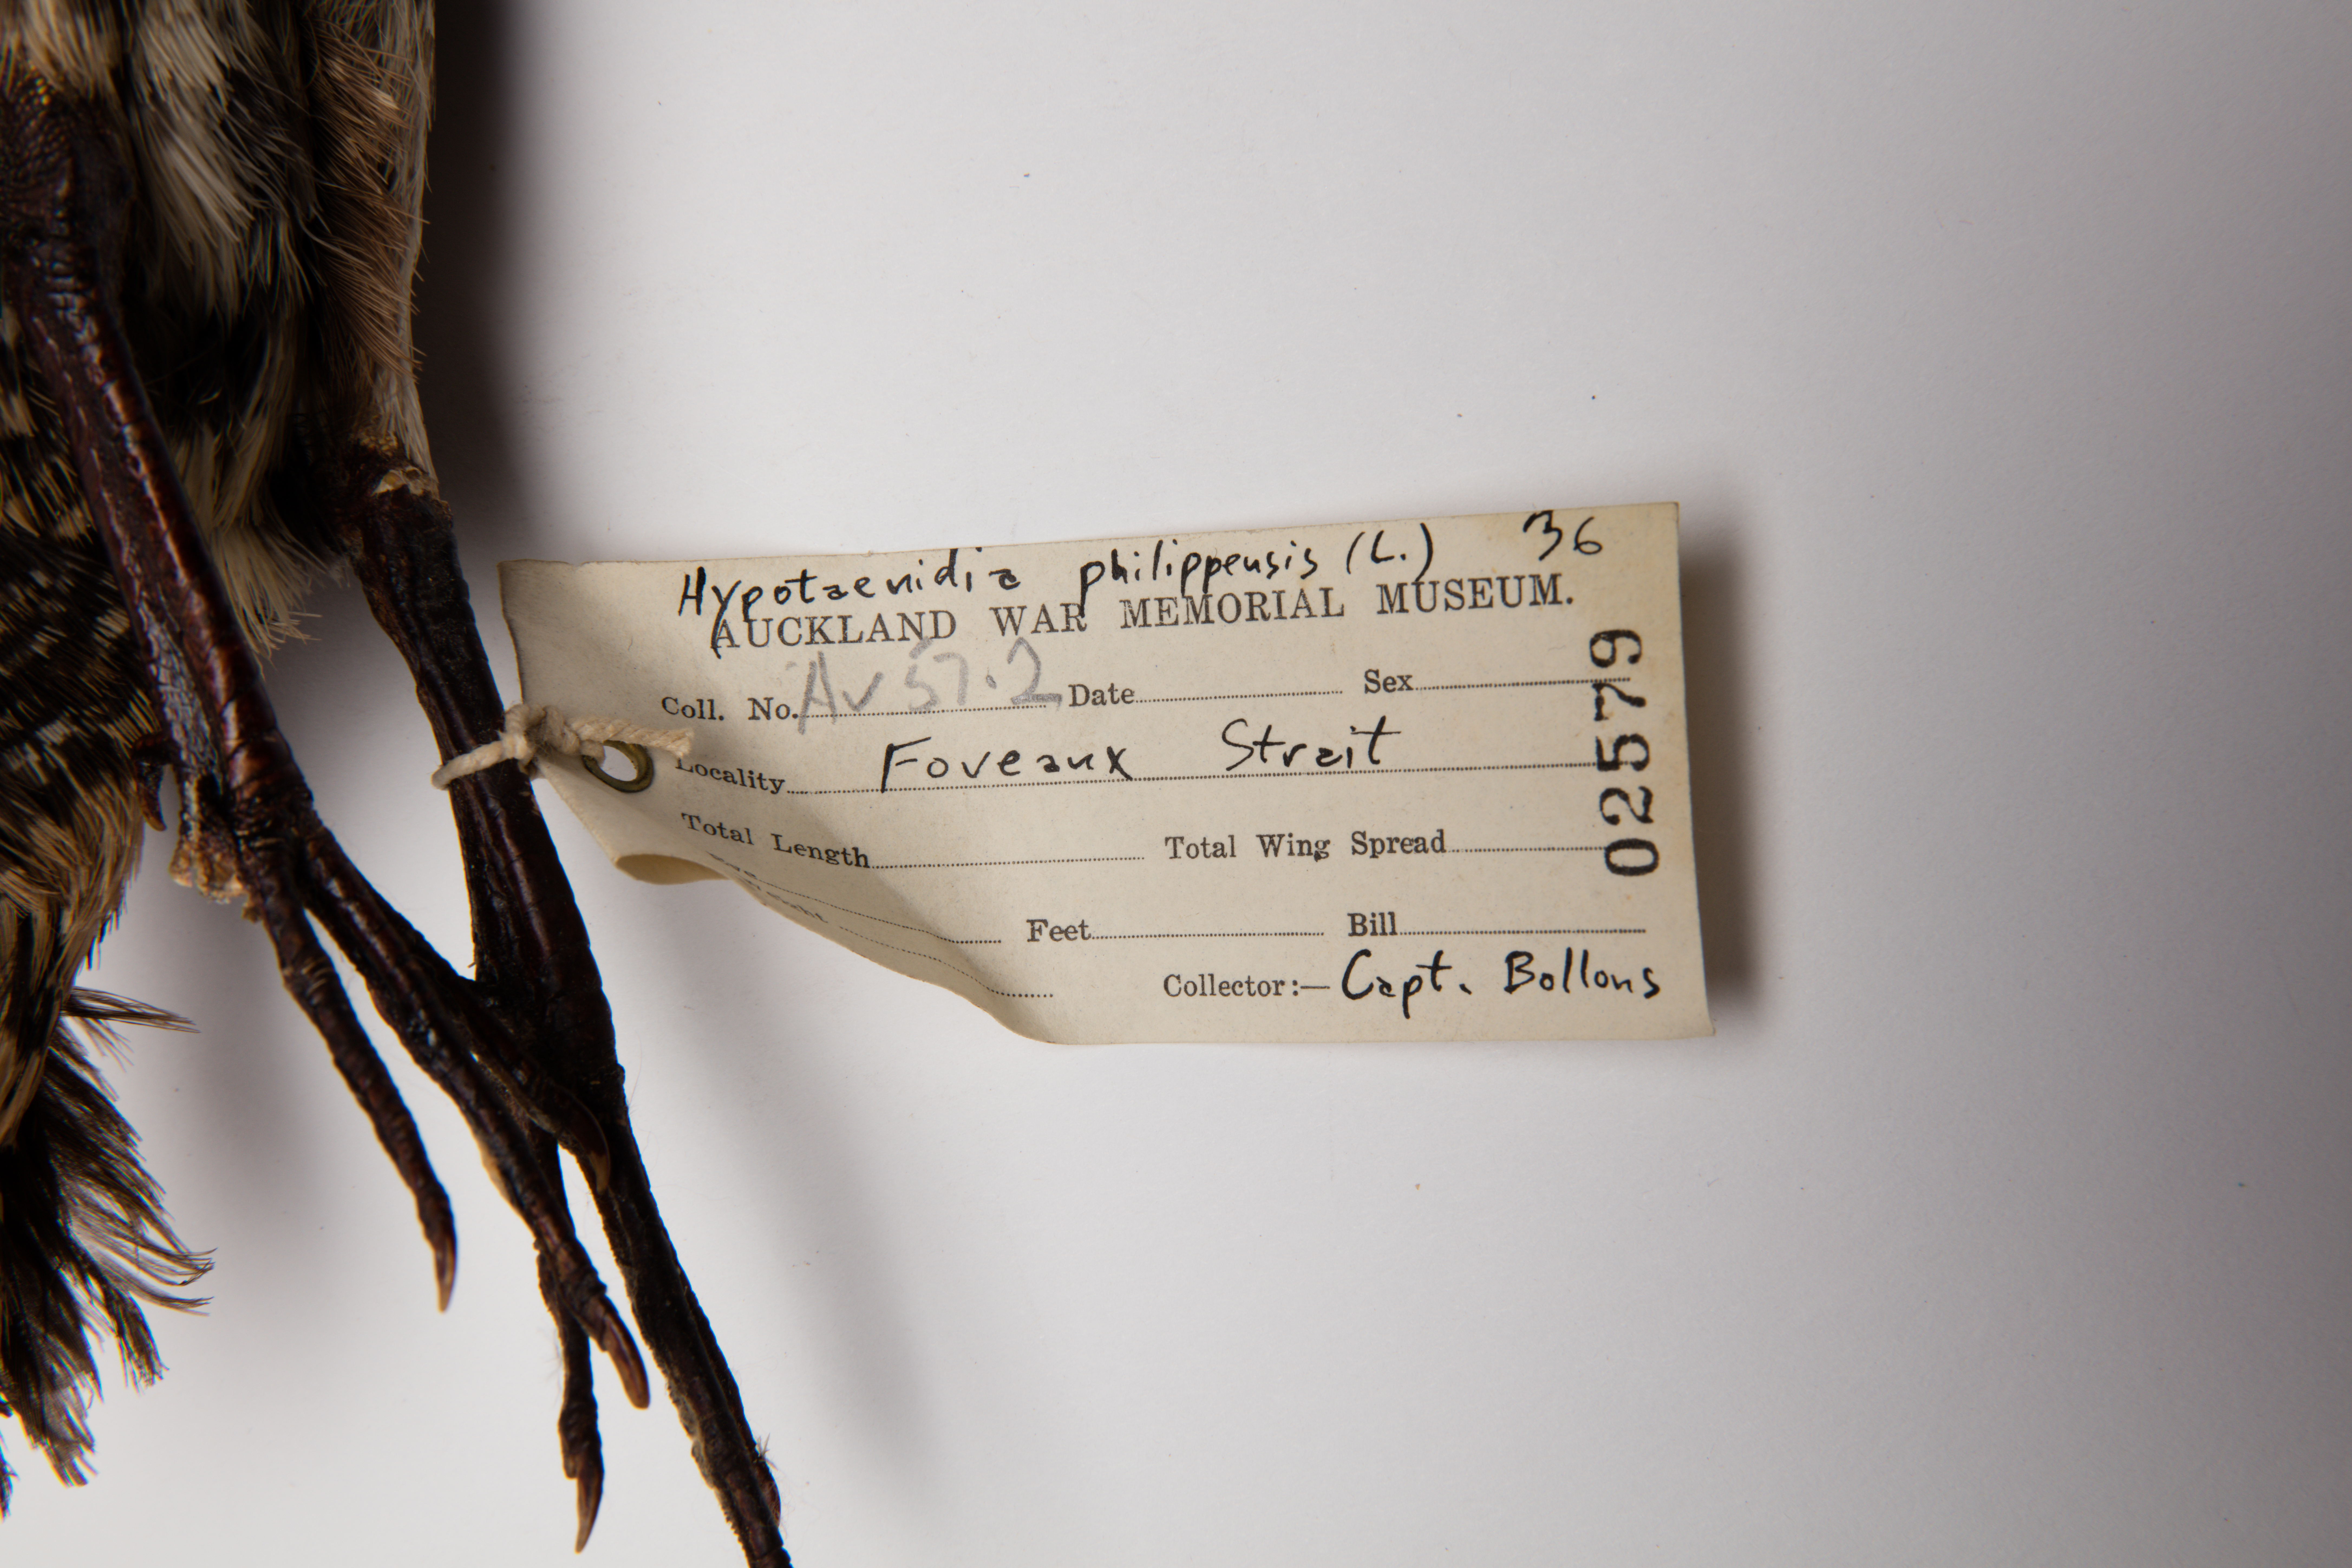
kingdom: Animalia
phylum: Chordata
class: Aves
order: Gruiformes
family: Rallidae
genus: Gallirallus
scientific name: Gallirallus philippensis
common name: Buff-banded rail
